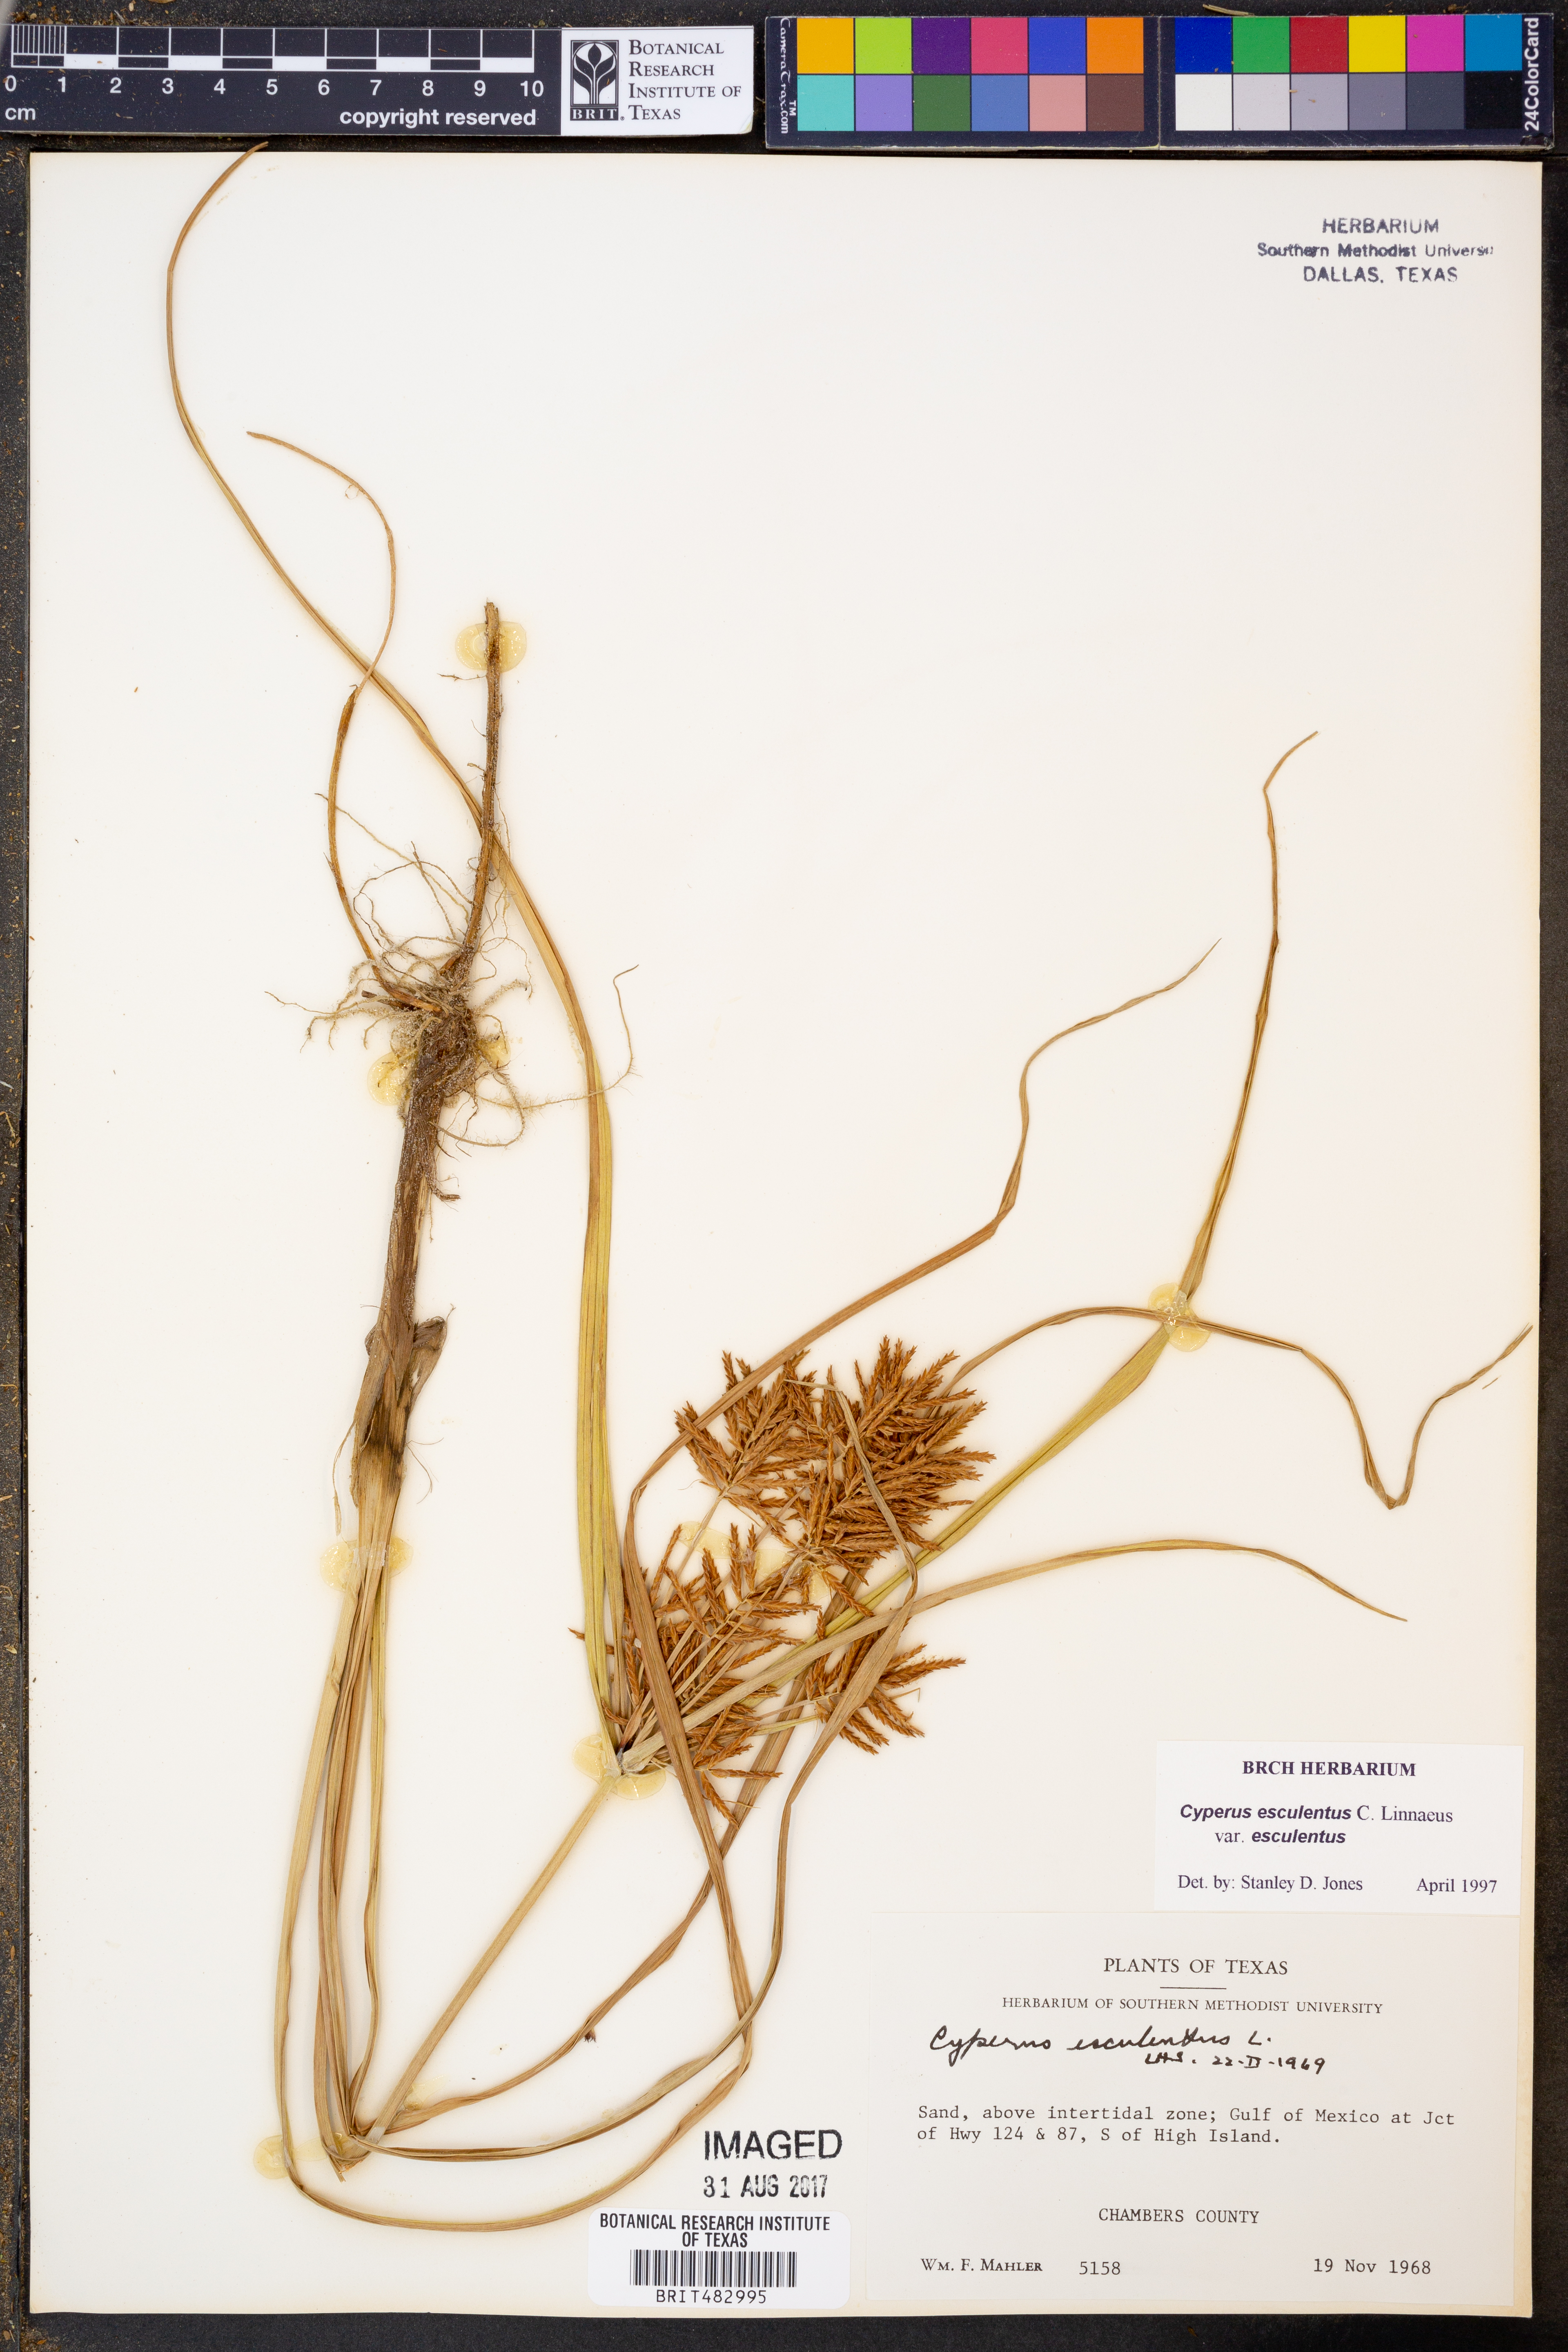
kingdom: Plantae
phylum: Tracheophyta
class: Liliopsida
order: Poales
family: Cyperaceae
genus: Cyperus
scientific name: Cyperus esculentus
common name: Yellow nutsedge
